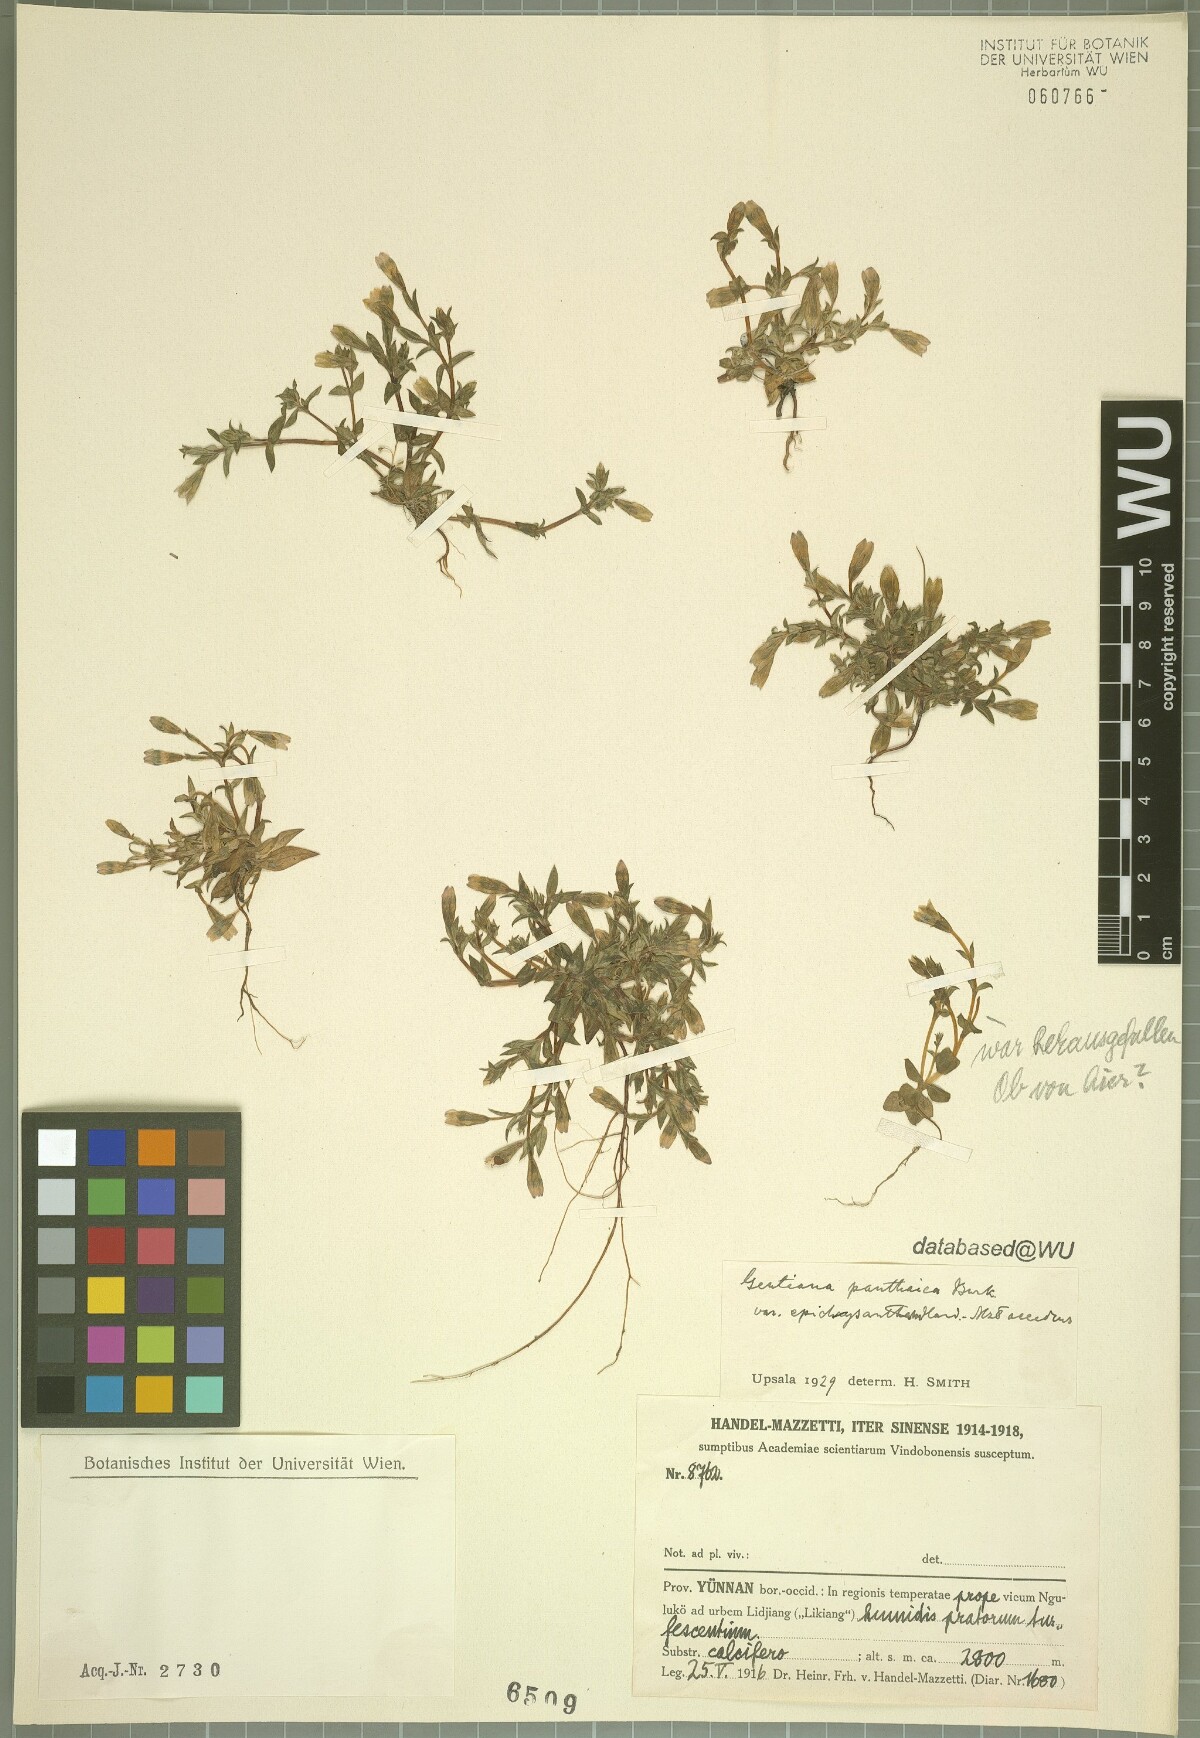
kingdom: Plantae
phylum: Tracheophyta
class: Magnoliopsida
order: Gentianales
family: Gentianaceae
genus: Gentiana
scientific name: Gentiana panthaica
